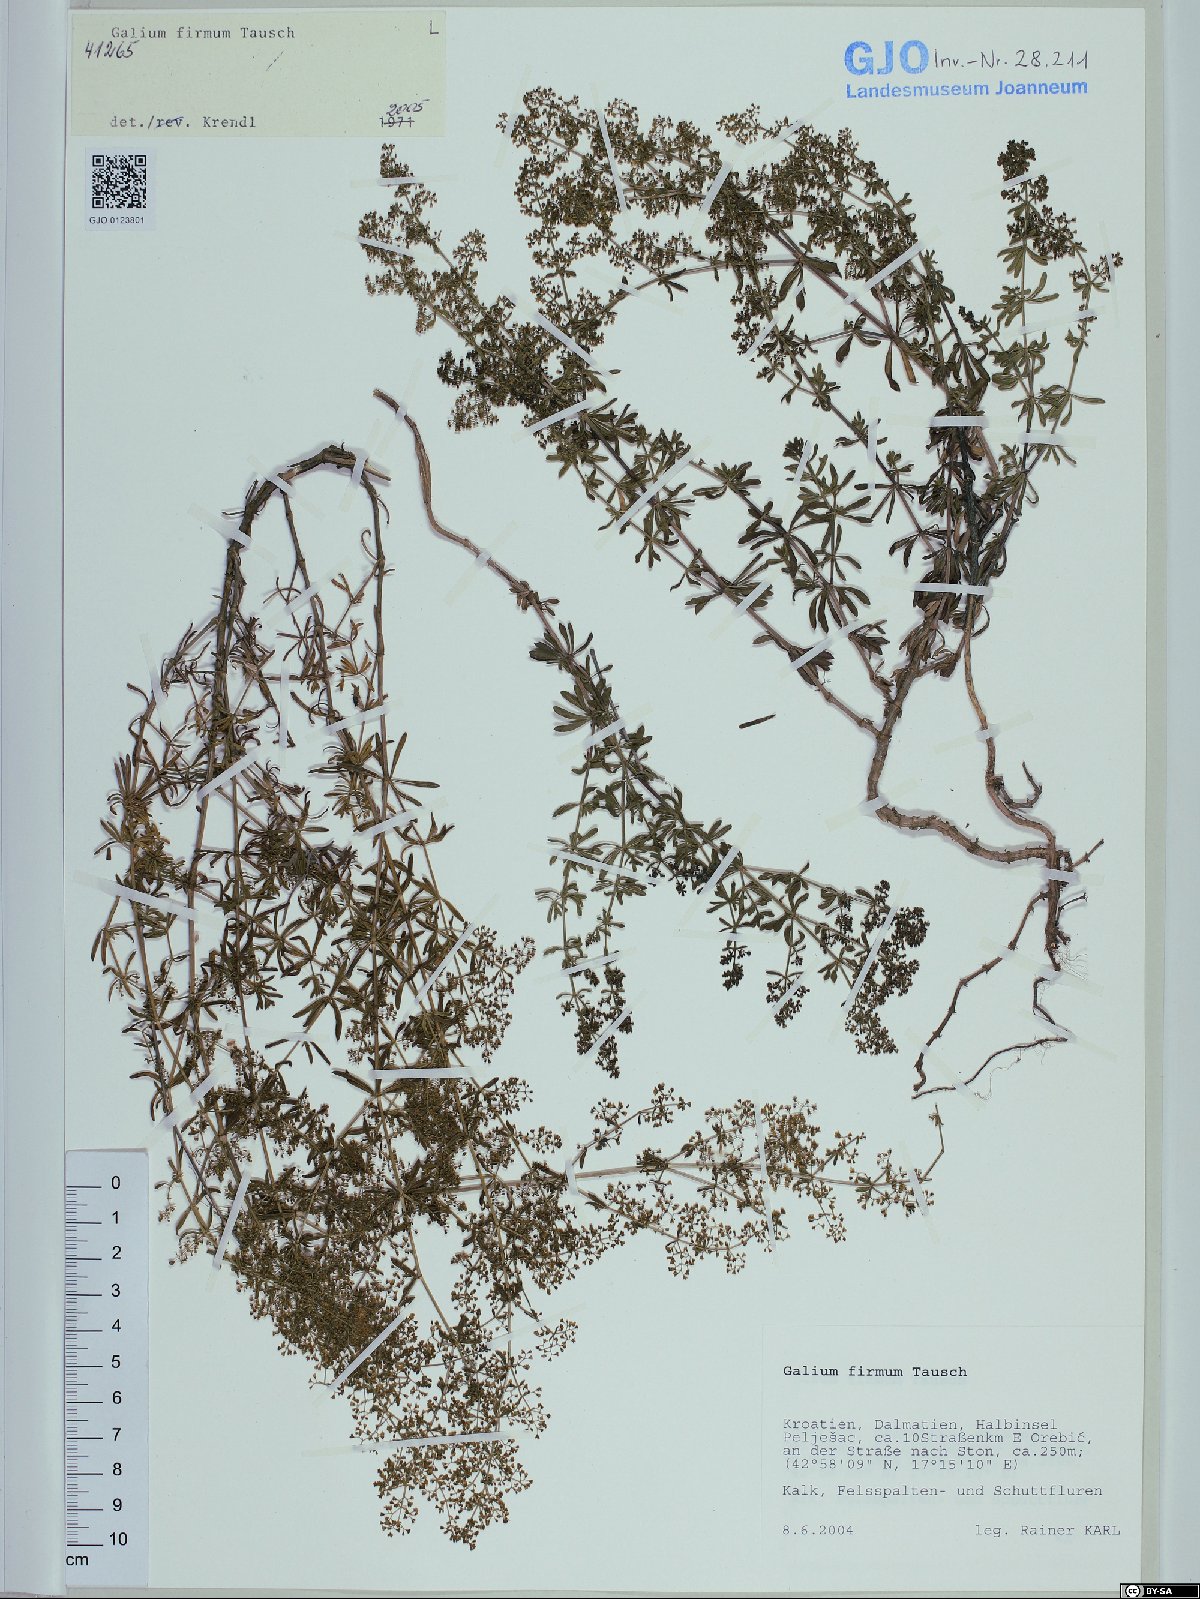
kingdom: Plantae
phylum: Tracheophyta
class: Magnoliopsida
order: Gentianales
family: Rubiaceae
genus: Galium
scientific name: Galium firmum
